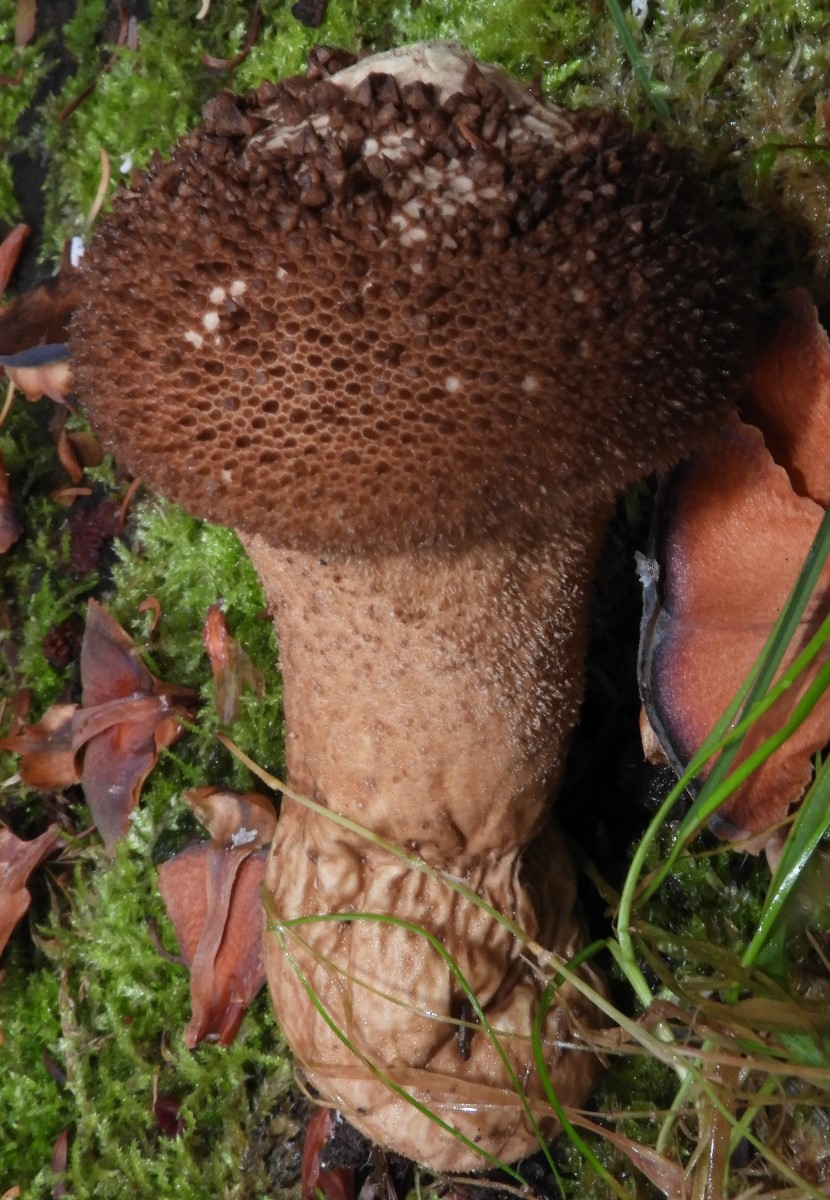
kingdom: Fungi
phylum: Basidiomycota
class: Agaricomycetes
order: Agaricales
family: Lycoperdaceae
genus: Lycoperdon
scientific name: Lycoperdon nigrescens
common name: sortagtig støvbold
